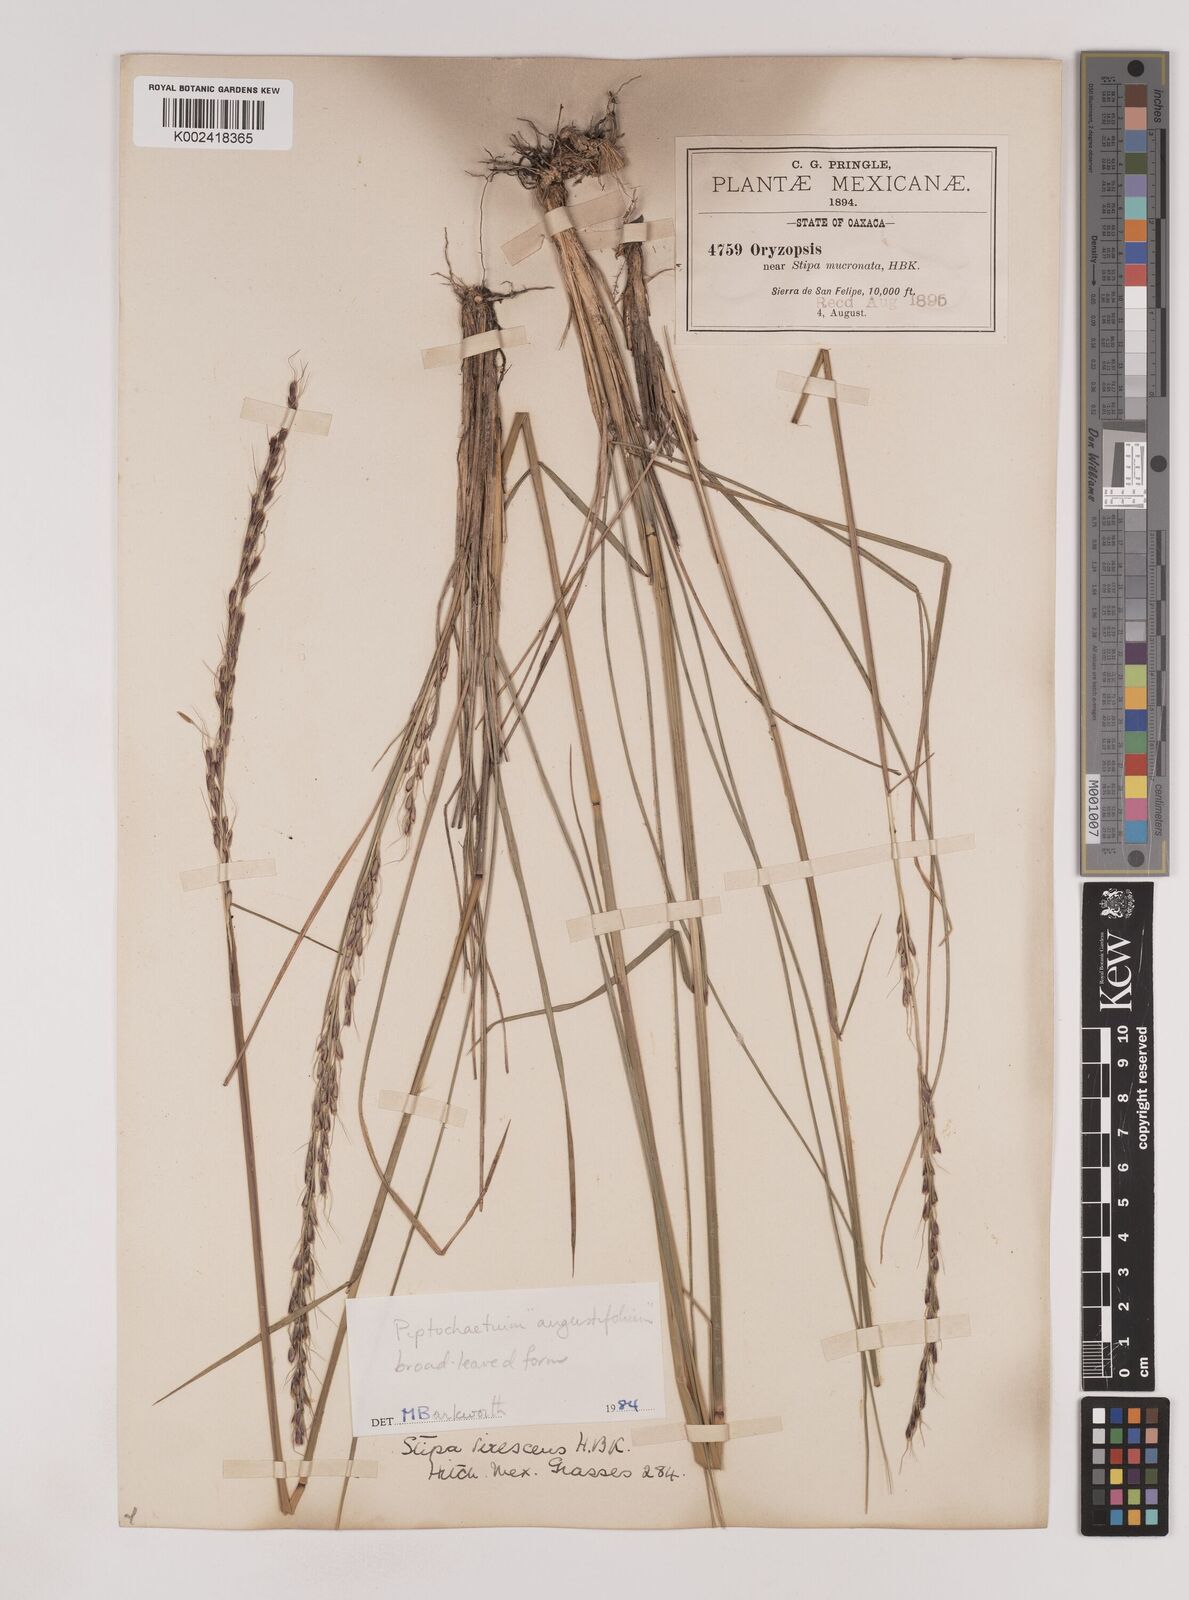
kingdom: Plantae
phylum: Tracheophyta
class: Liliopsida
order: Poales
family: Poaceae
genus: Piptochaetium
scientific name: Piptochaetium angustifolium
